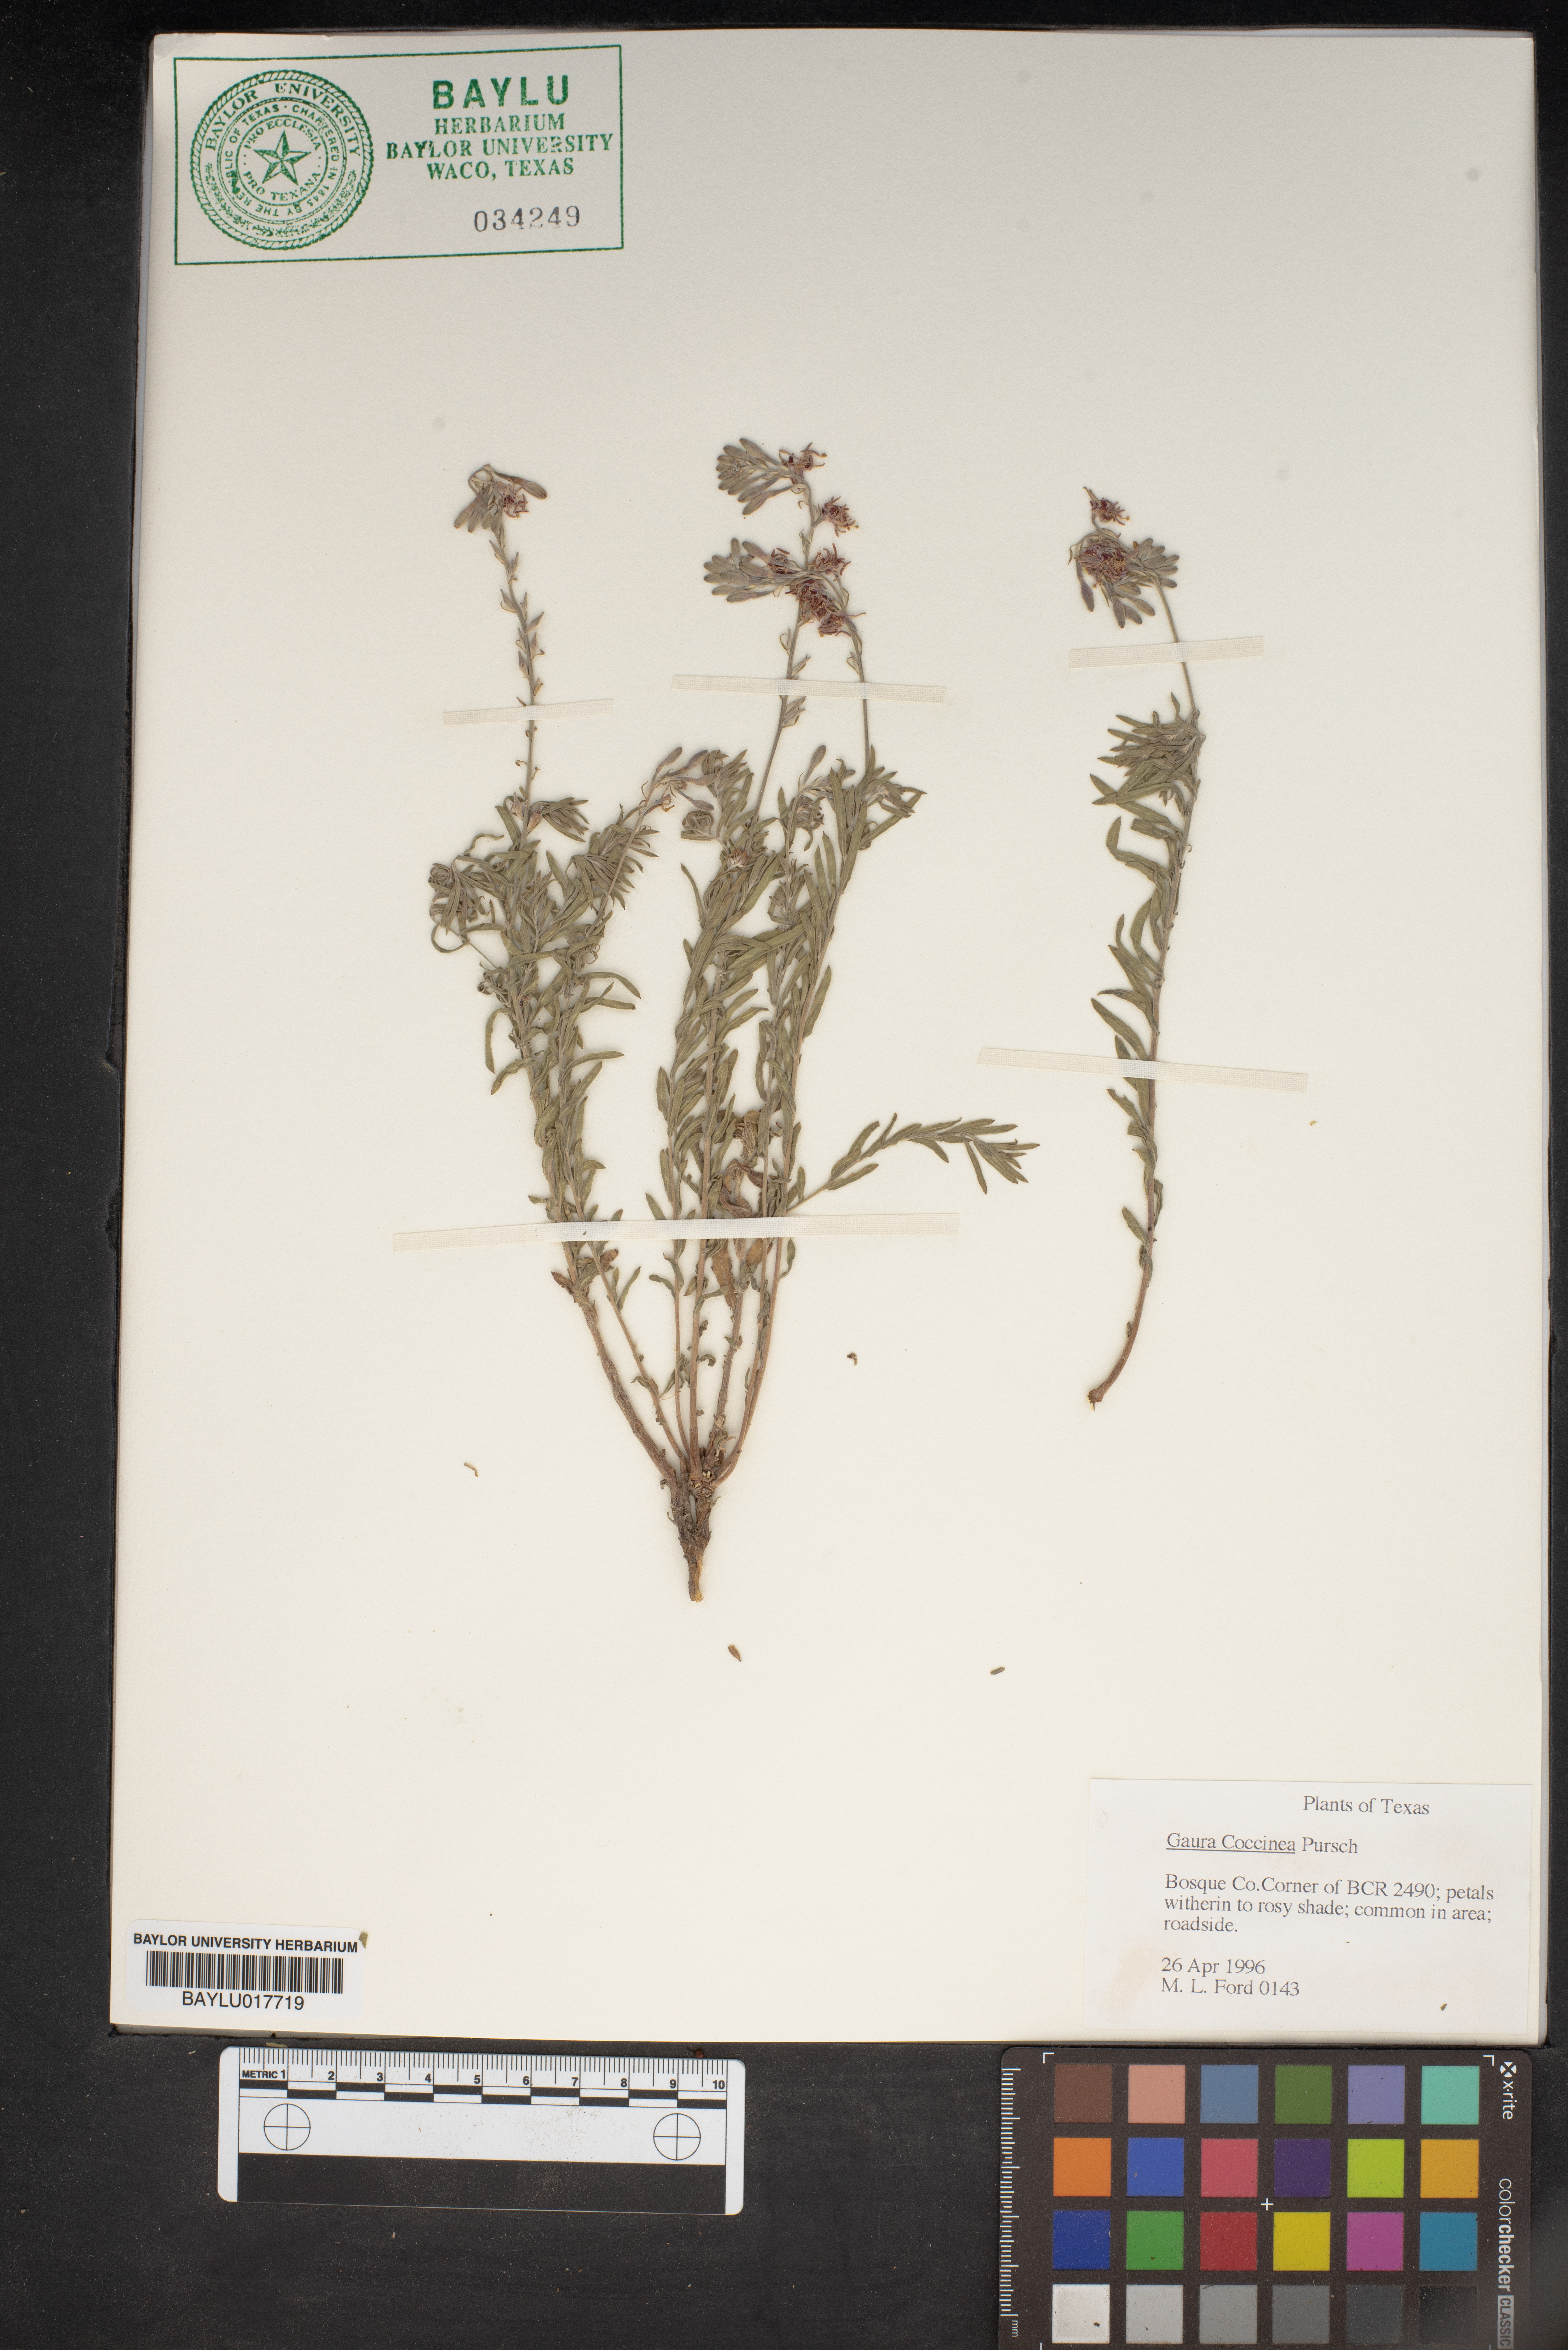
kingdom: Plantae
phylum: Tracheophyta
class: Magnoliopsida
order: Myrtales
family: Onagraceae
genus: Oenothera
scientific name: Oenothera suffrutescens
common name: Scarlet beeblossom
